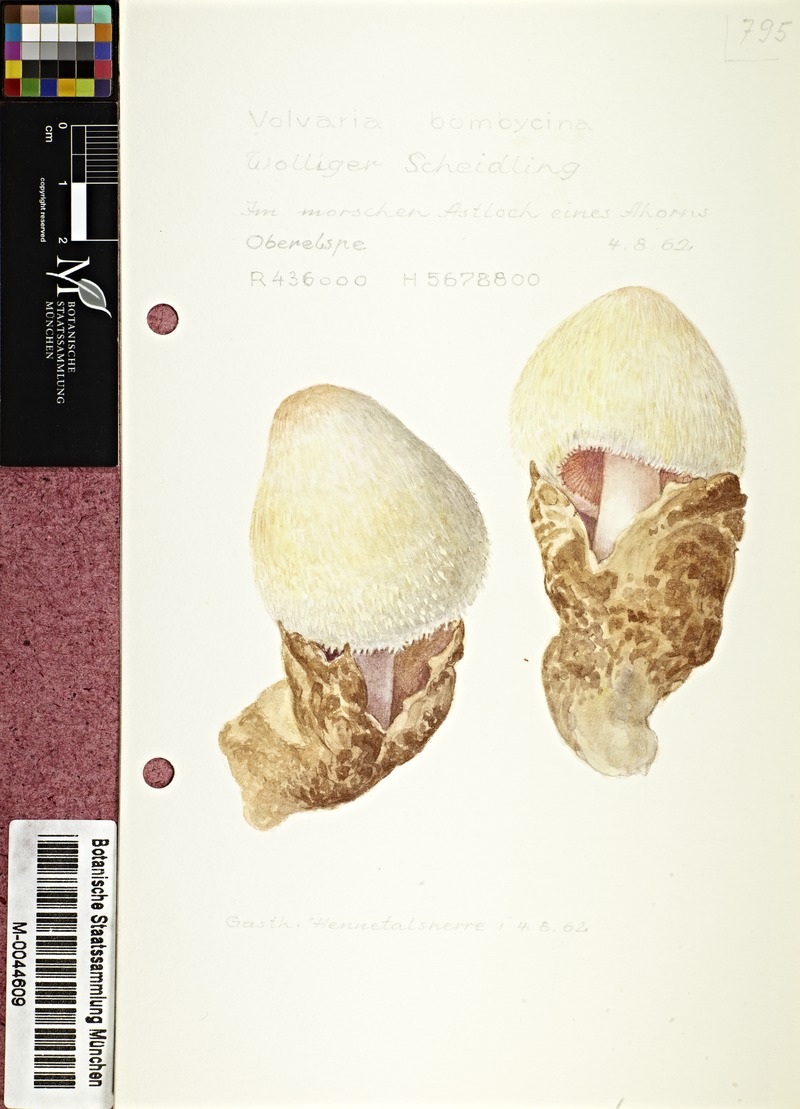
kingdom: Fungi
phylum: Basidiomycota
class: Agaricomycetes
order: Agaricales
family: Pluteaceae
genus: Volvariella
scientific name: Volvariella bombycina
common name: Silky rosegill
